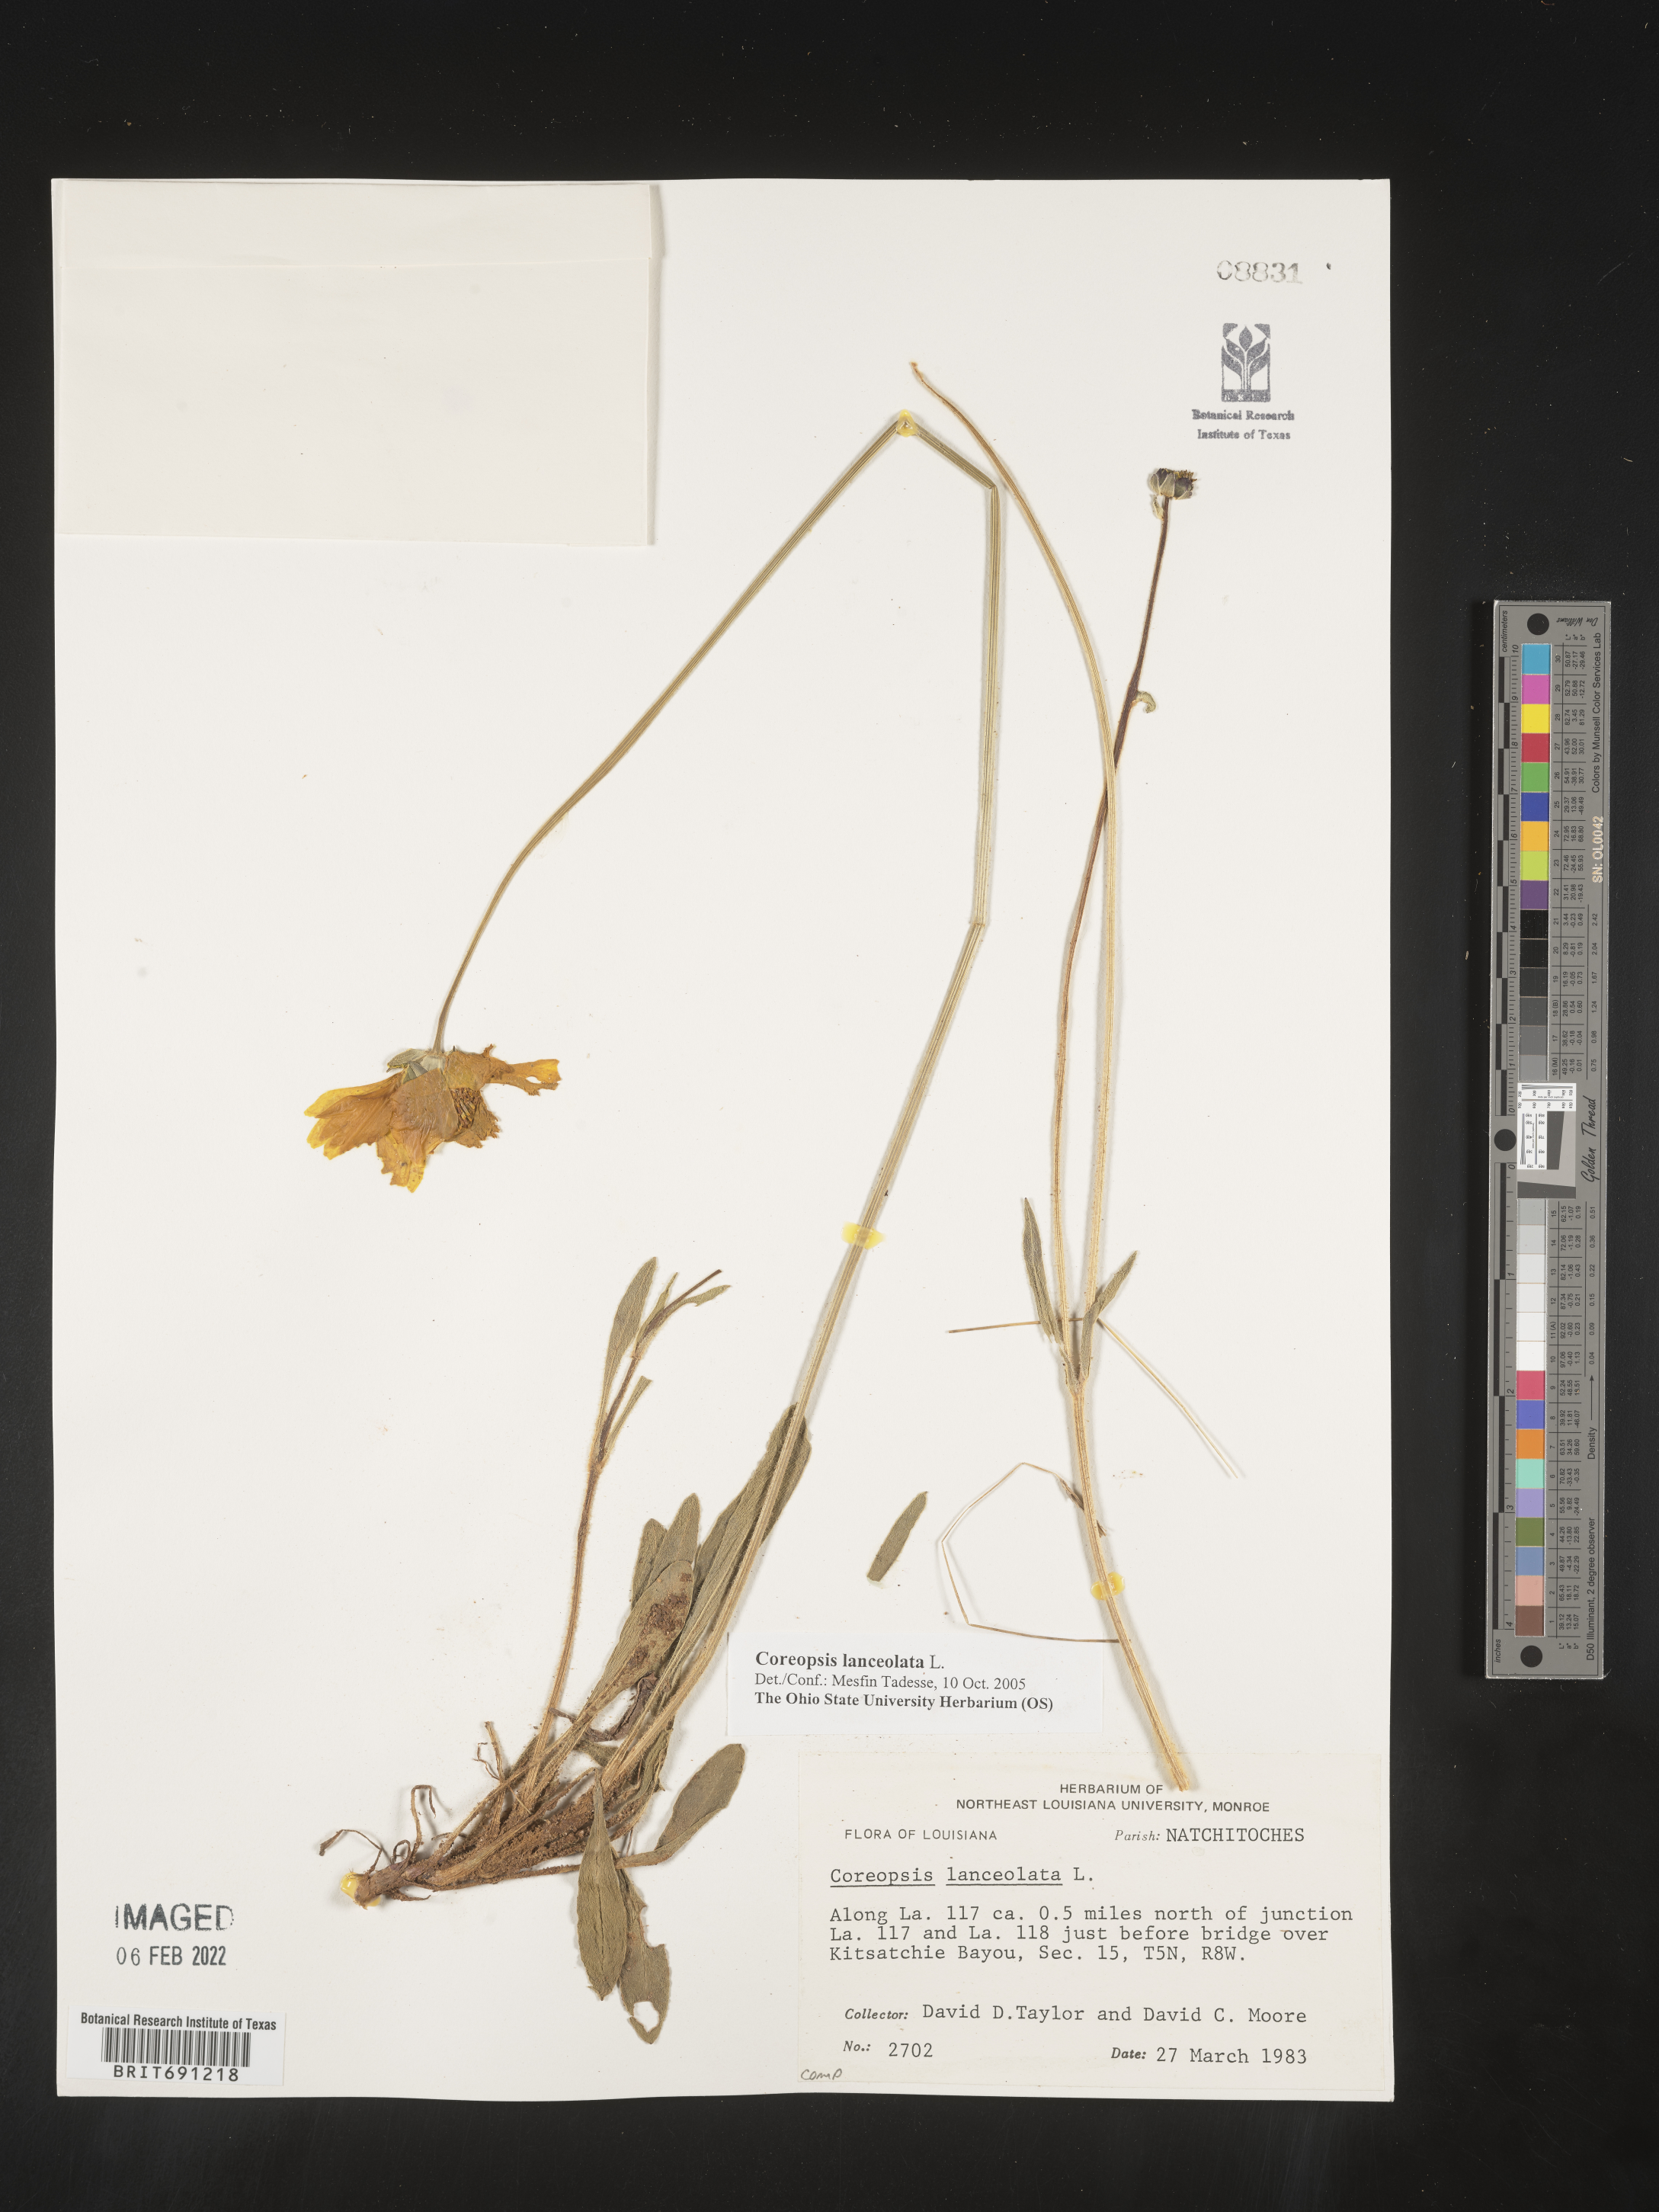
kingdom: Plantae
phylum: Tracheophyta
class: Magnoliopsida
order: Asterales
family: Asteraceae
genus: Coreopsis
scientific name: Coreopsis lanceolata
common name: Garden coreopsis
